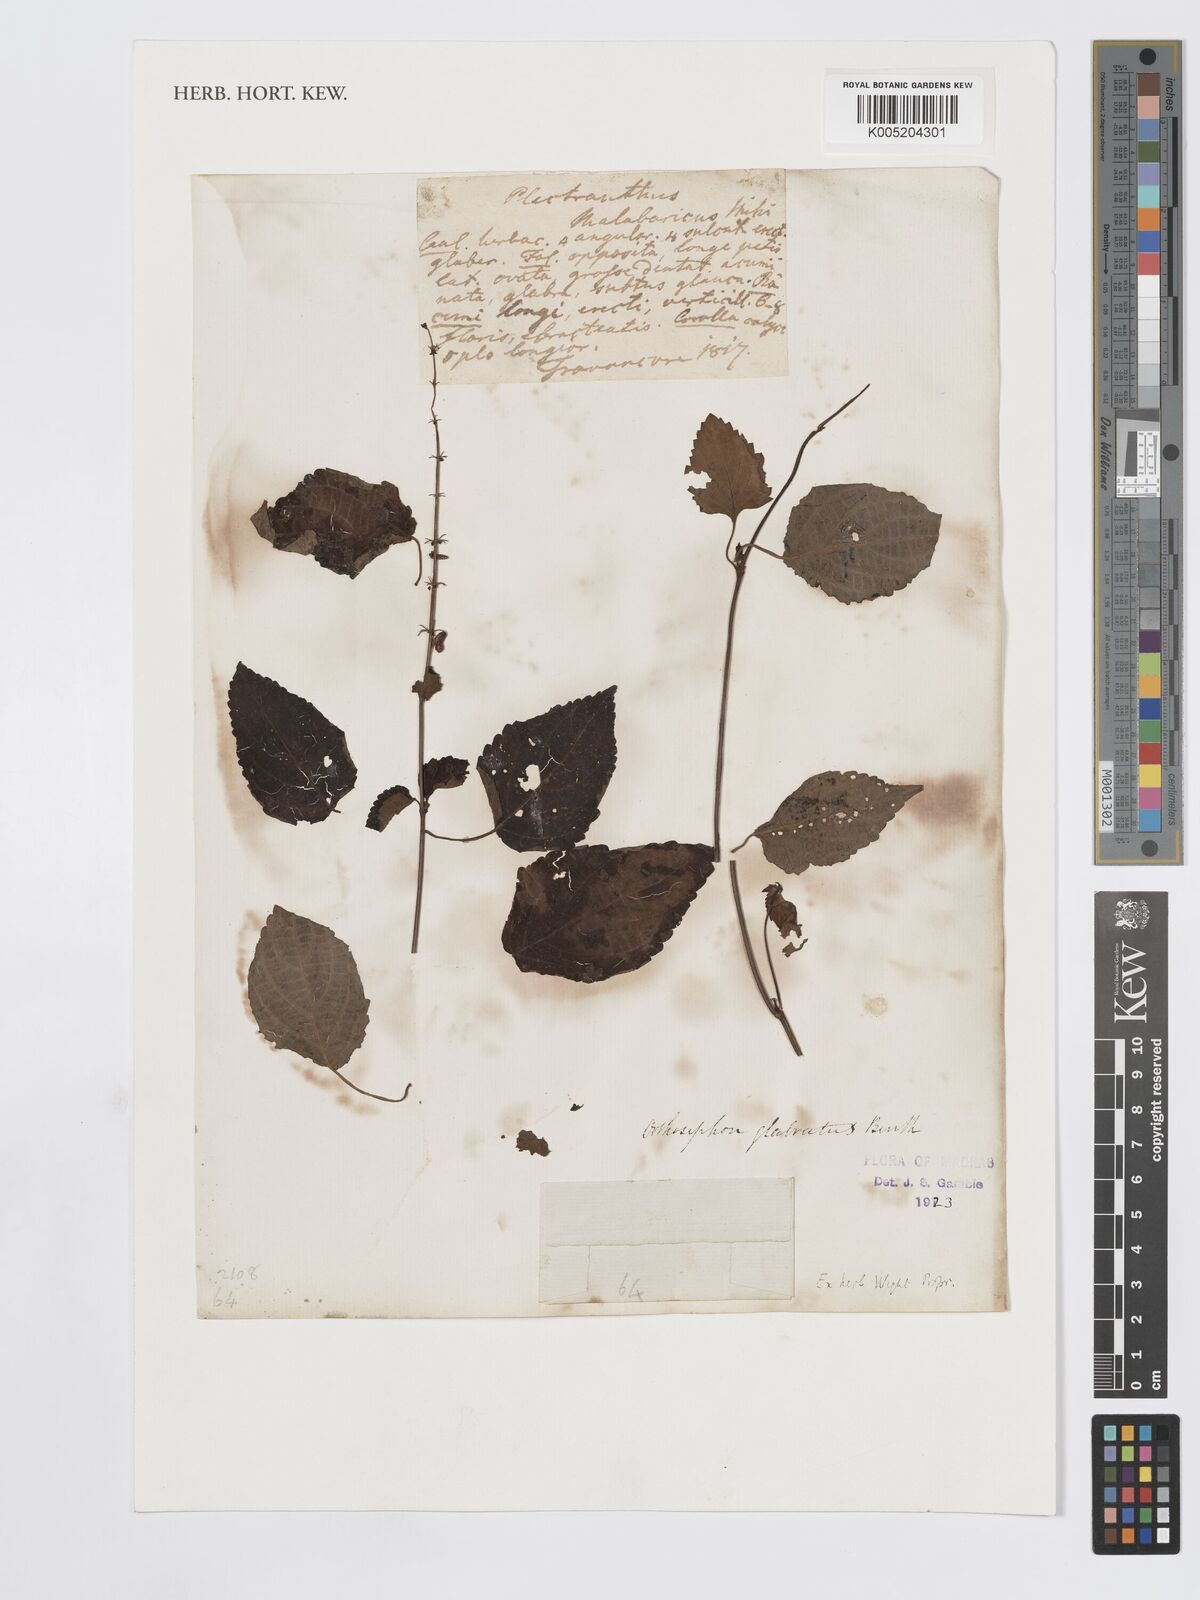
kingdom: Plantae
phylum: Tracheophyta
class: Magnoliopsida
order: Lamiales
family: Lamiaceae
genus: Orthosiphon
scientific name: Orthosiphon thymiflorus
